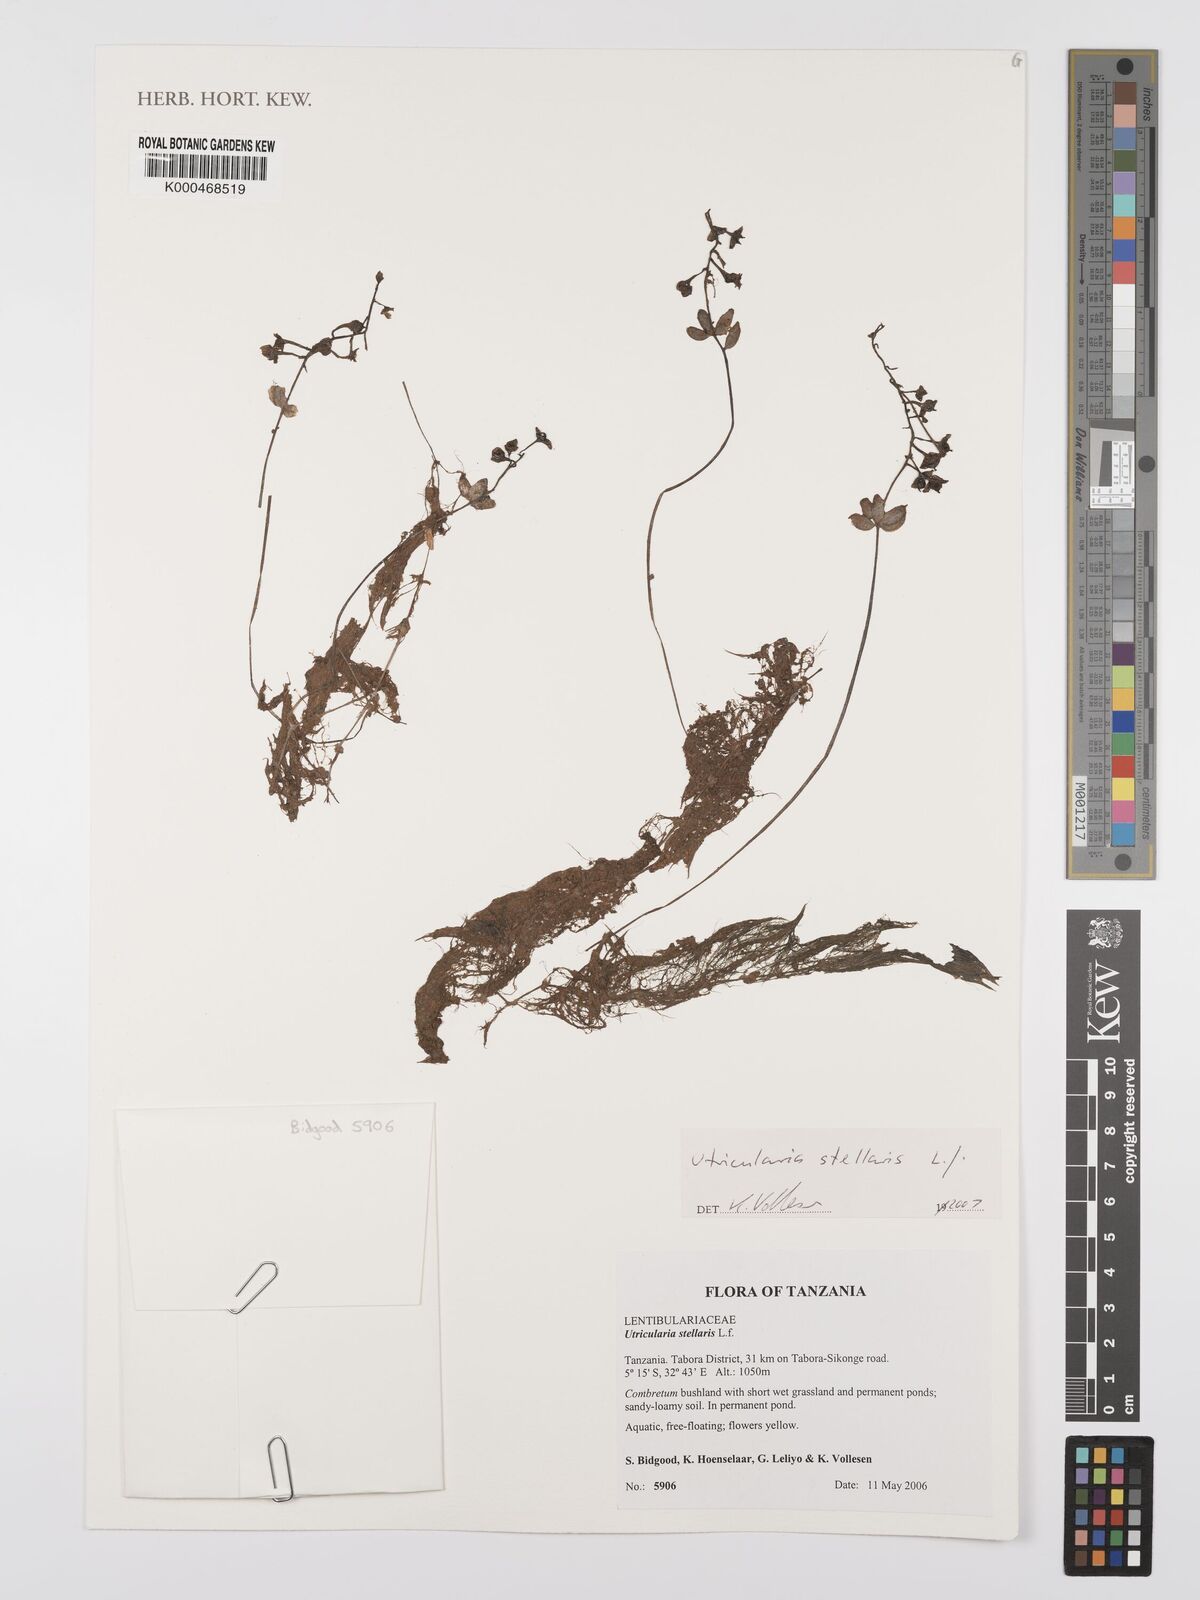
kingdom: Plantae
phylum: Tracheophyta
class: Magnoliopsida
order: Lamiales
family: Lentibulariaceae
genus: Utricularia
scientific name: Utricularia stellaris
